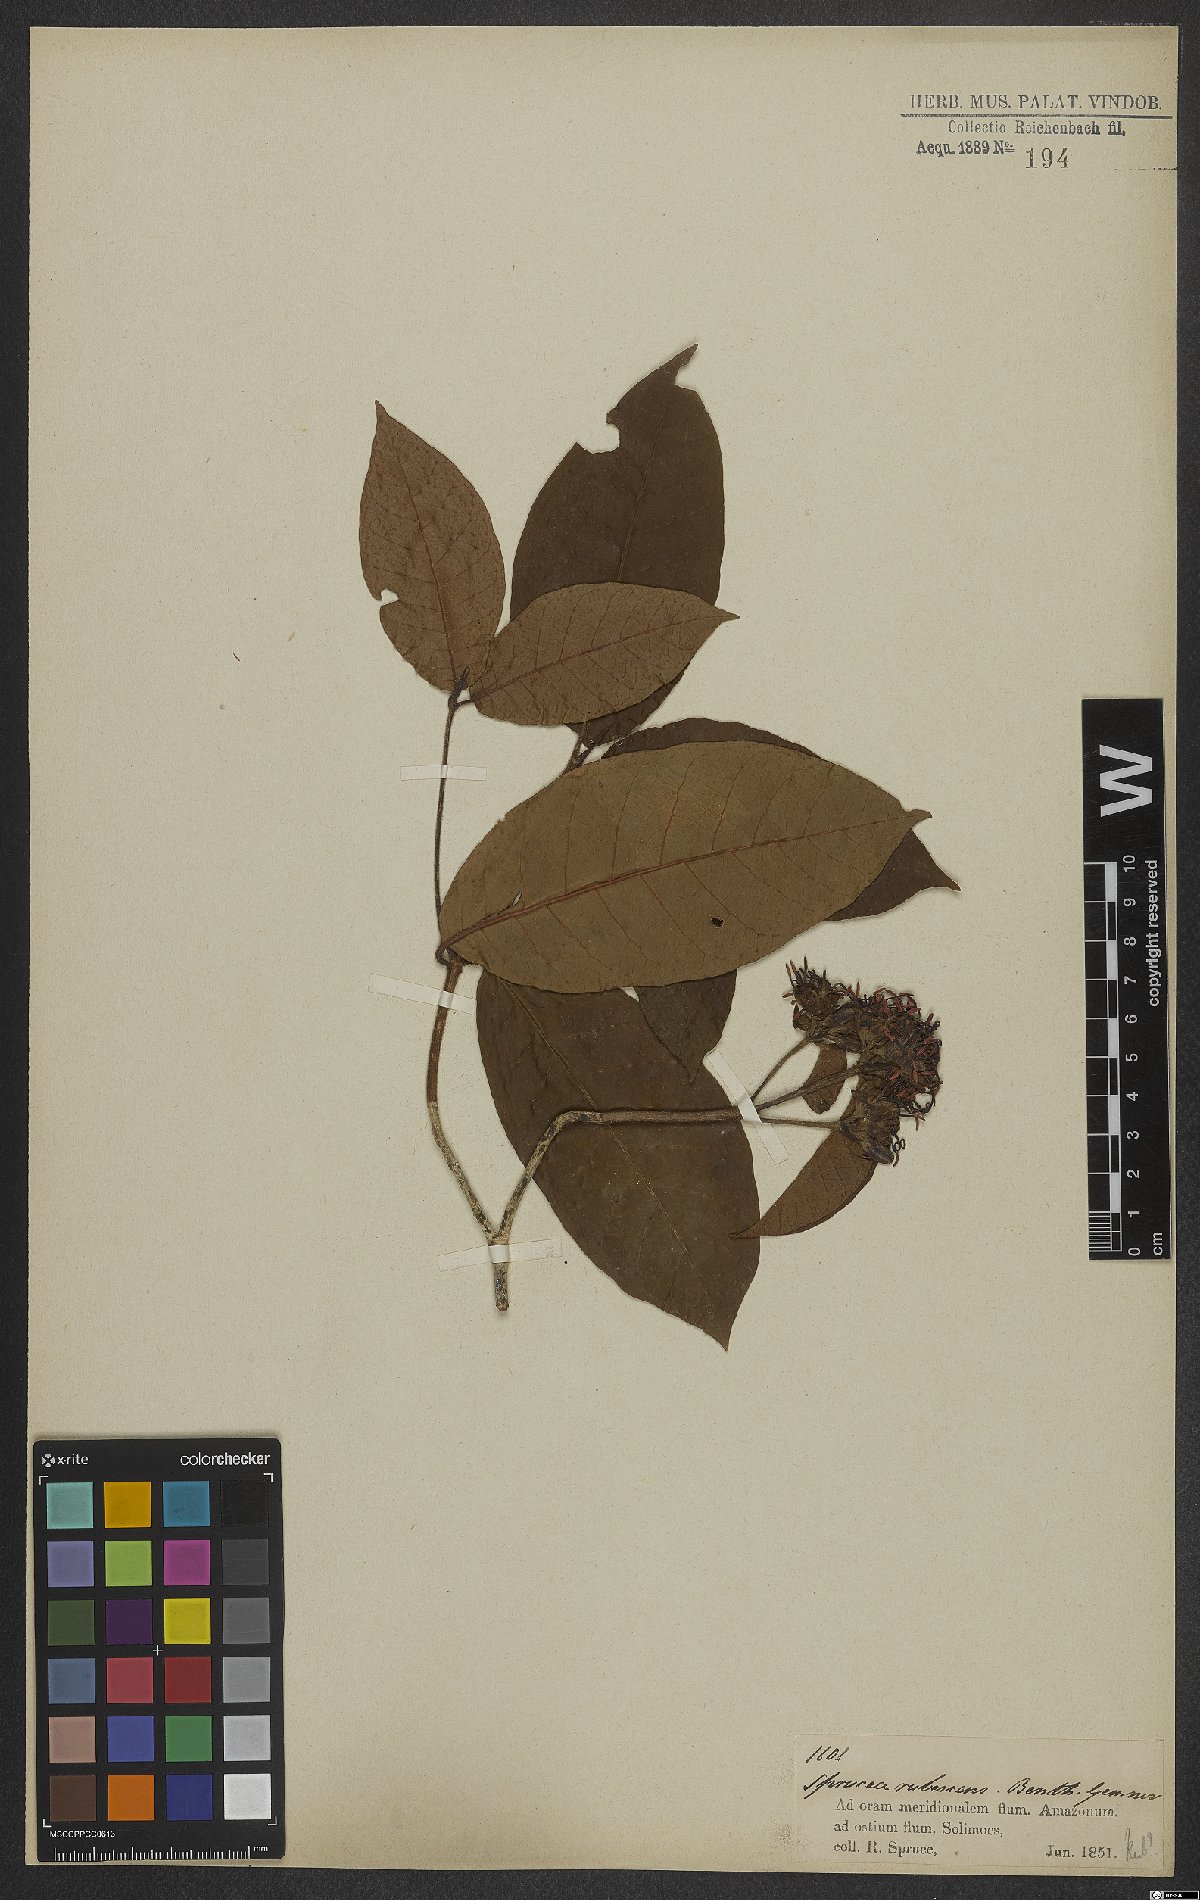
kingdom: Plantae
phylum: Tracheophyta
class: Magnoliopsida
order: Gentianales
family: Rubiaceae
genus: Simira
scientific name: Simira tinctoria
